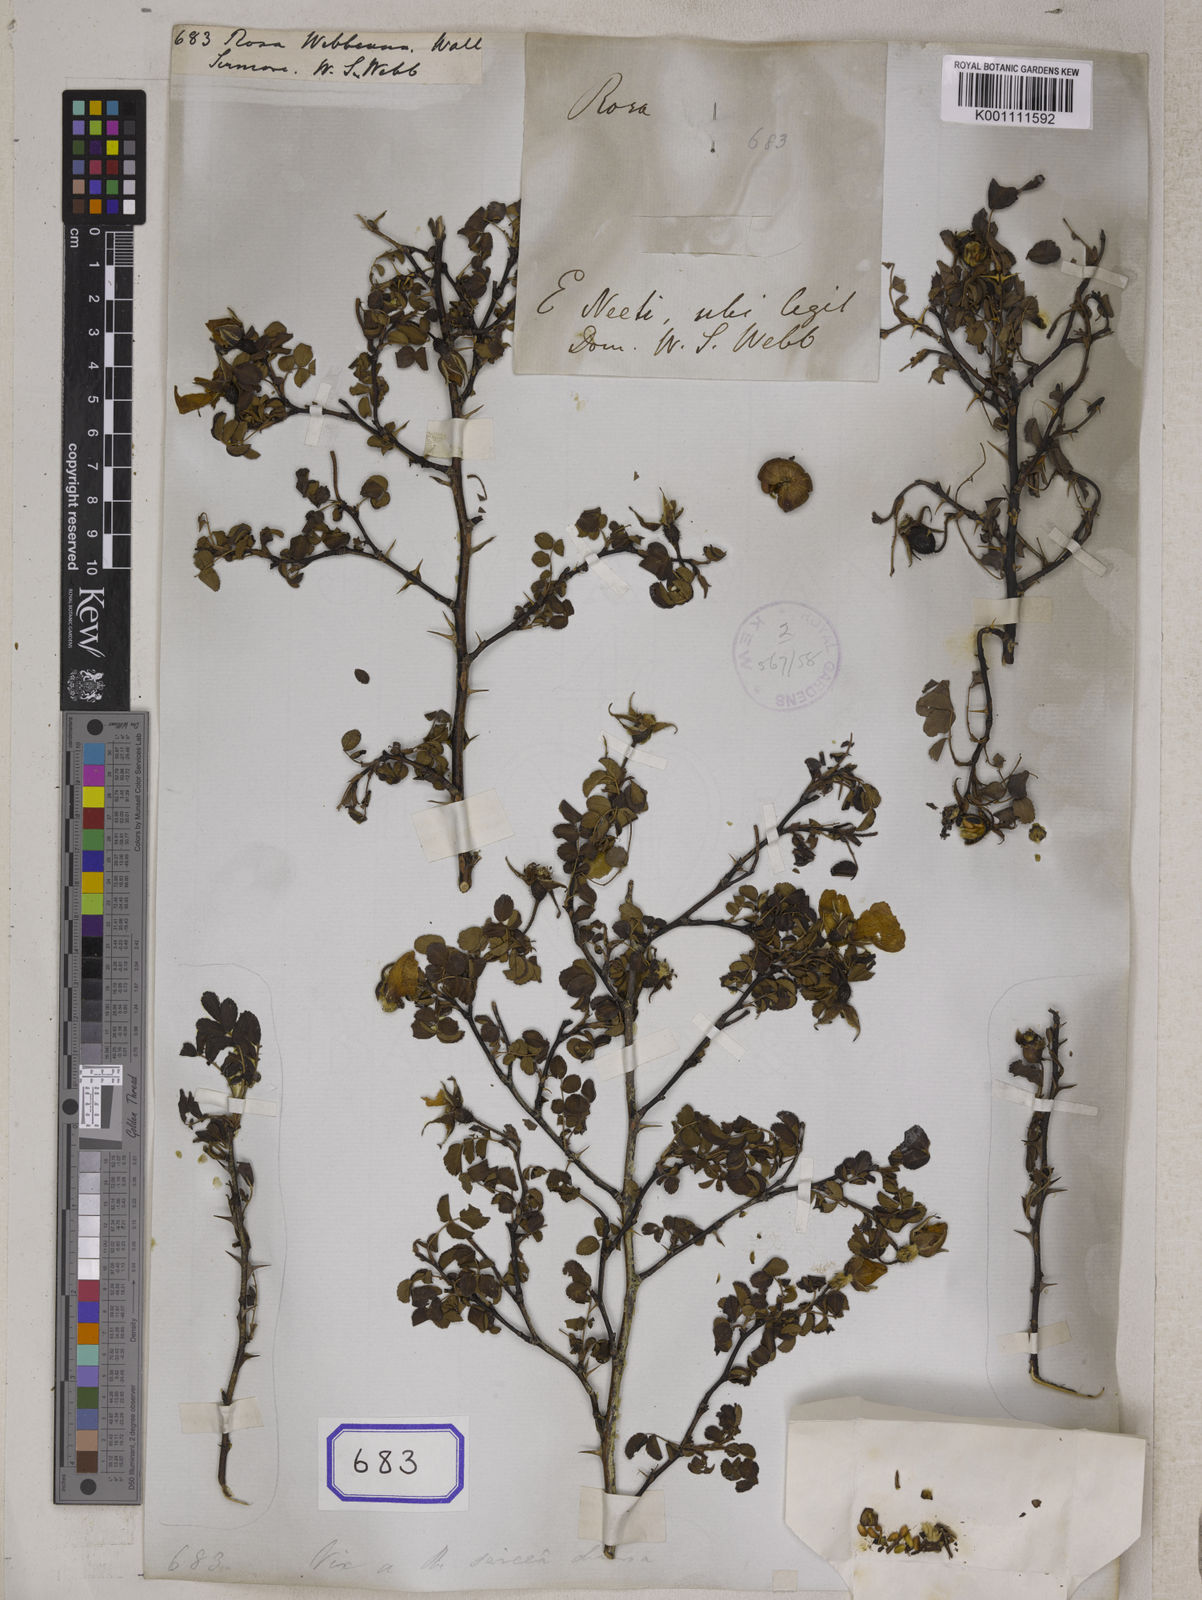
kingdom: Plantae
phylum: Tracheophyta
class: Magnoliopsida
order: Rosales
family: Rosaceae
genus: Rosa
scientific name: Rosa
